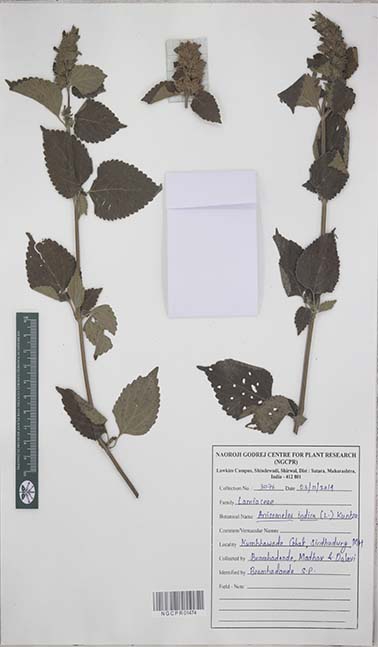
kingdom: Plantae
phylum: Tracheophyta
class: Magnoliopsida
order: Lamiales
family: Lamiaceae
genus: Anisomeles
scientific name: Anisomeles indica
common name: Catmint
